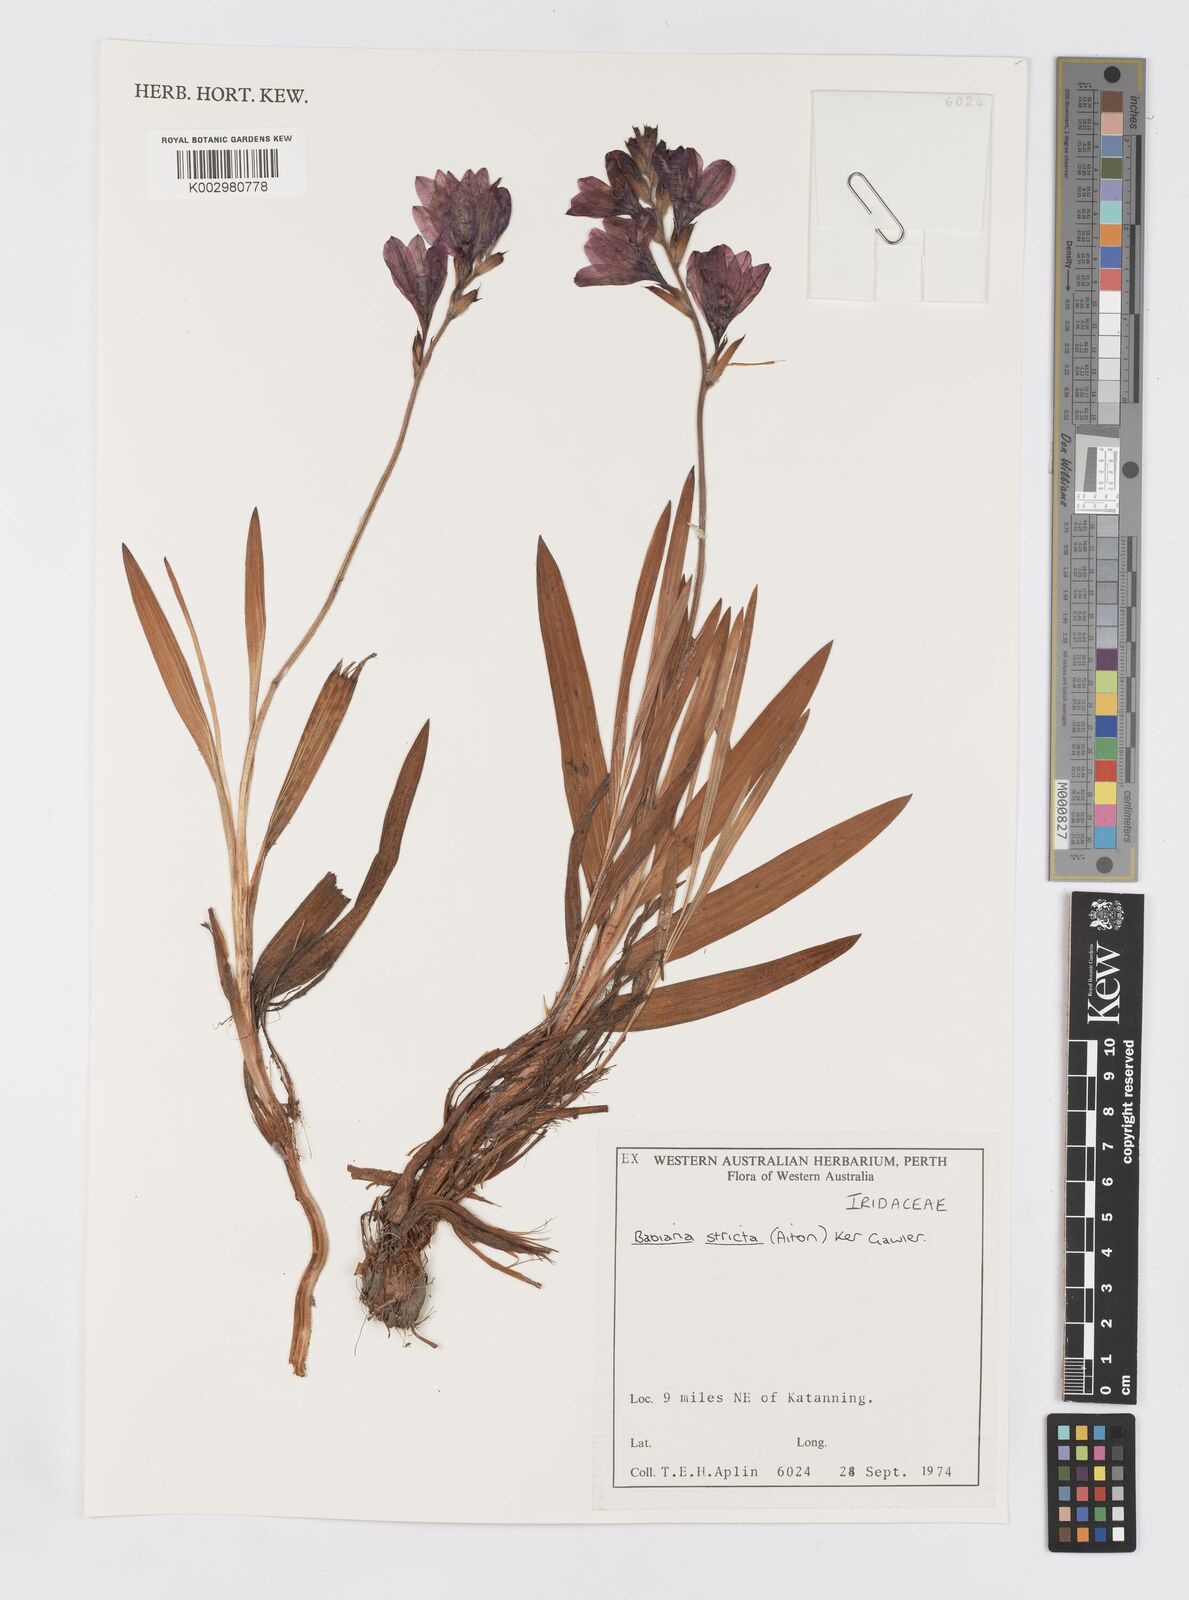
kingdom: Plantae
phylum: Tracheophyta
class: Liliopsida
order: Asparagales
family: Iridaceae
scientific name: Iridaceae
